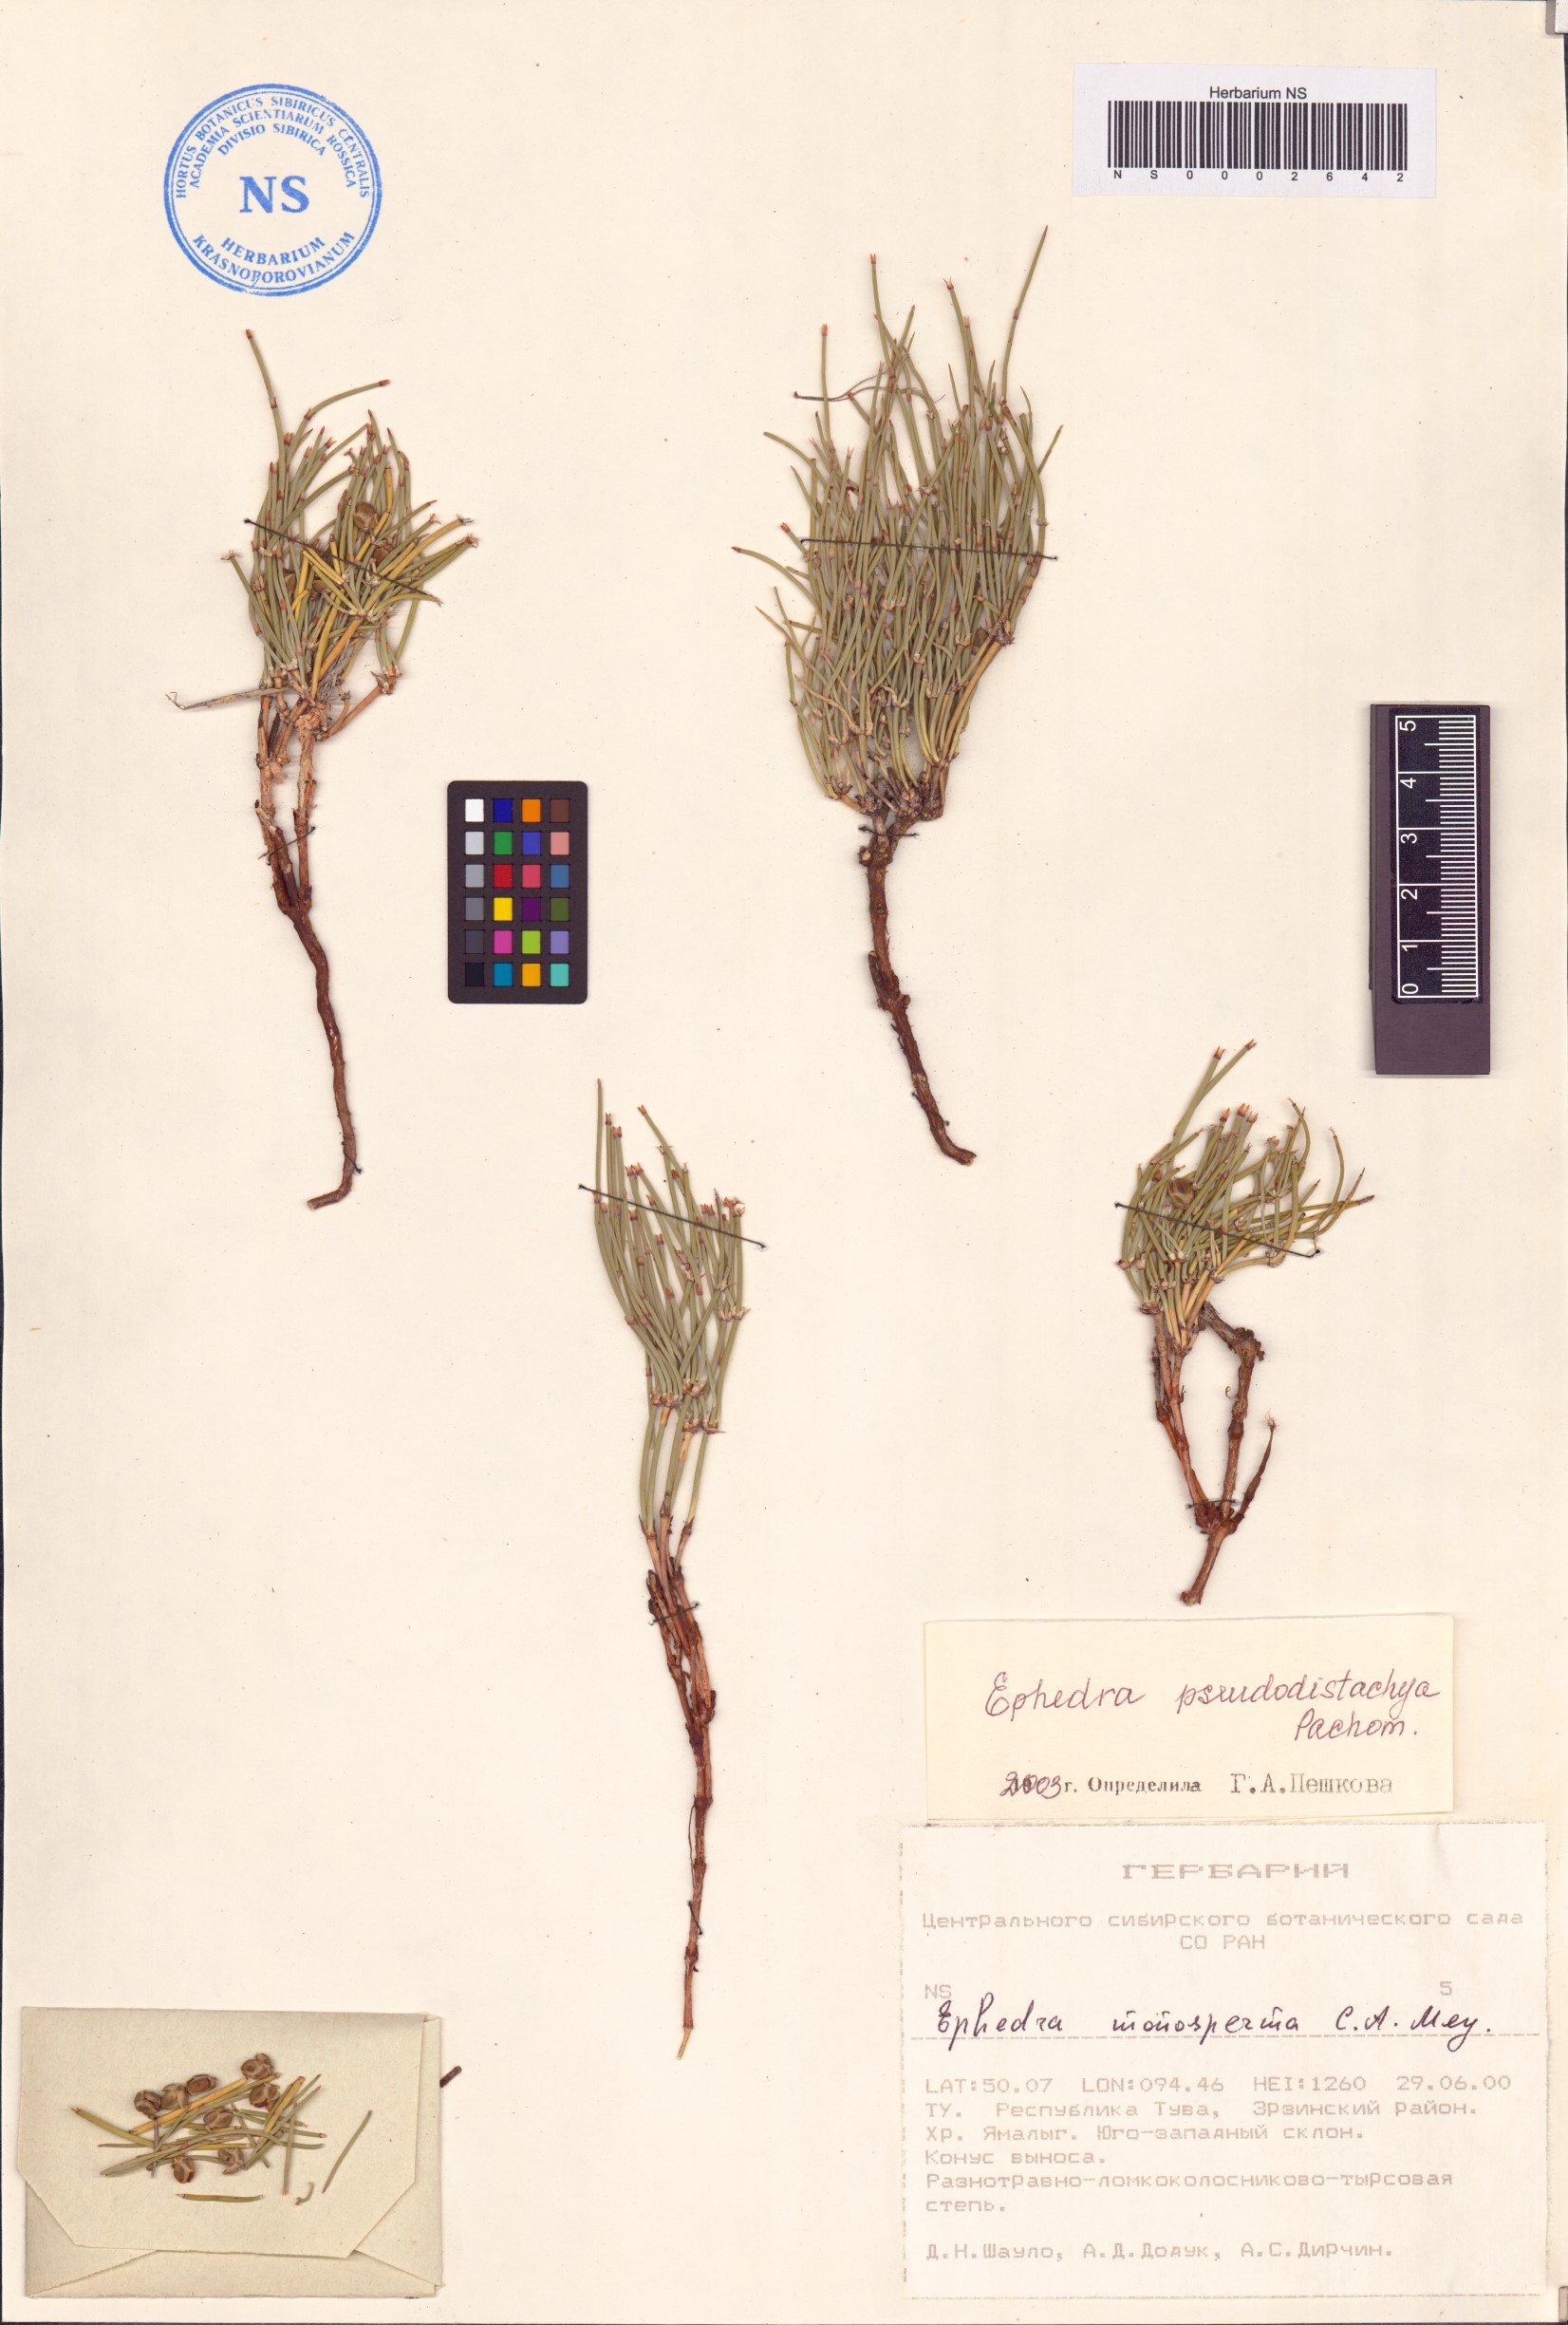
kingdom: Plantae
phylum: Tracheophyta
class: Gnetopsida
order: Ephedrales
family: Ephedraceae
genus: Ephedra
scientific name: Ephedra pseudodistachya
